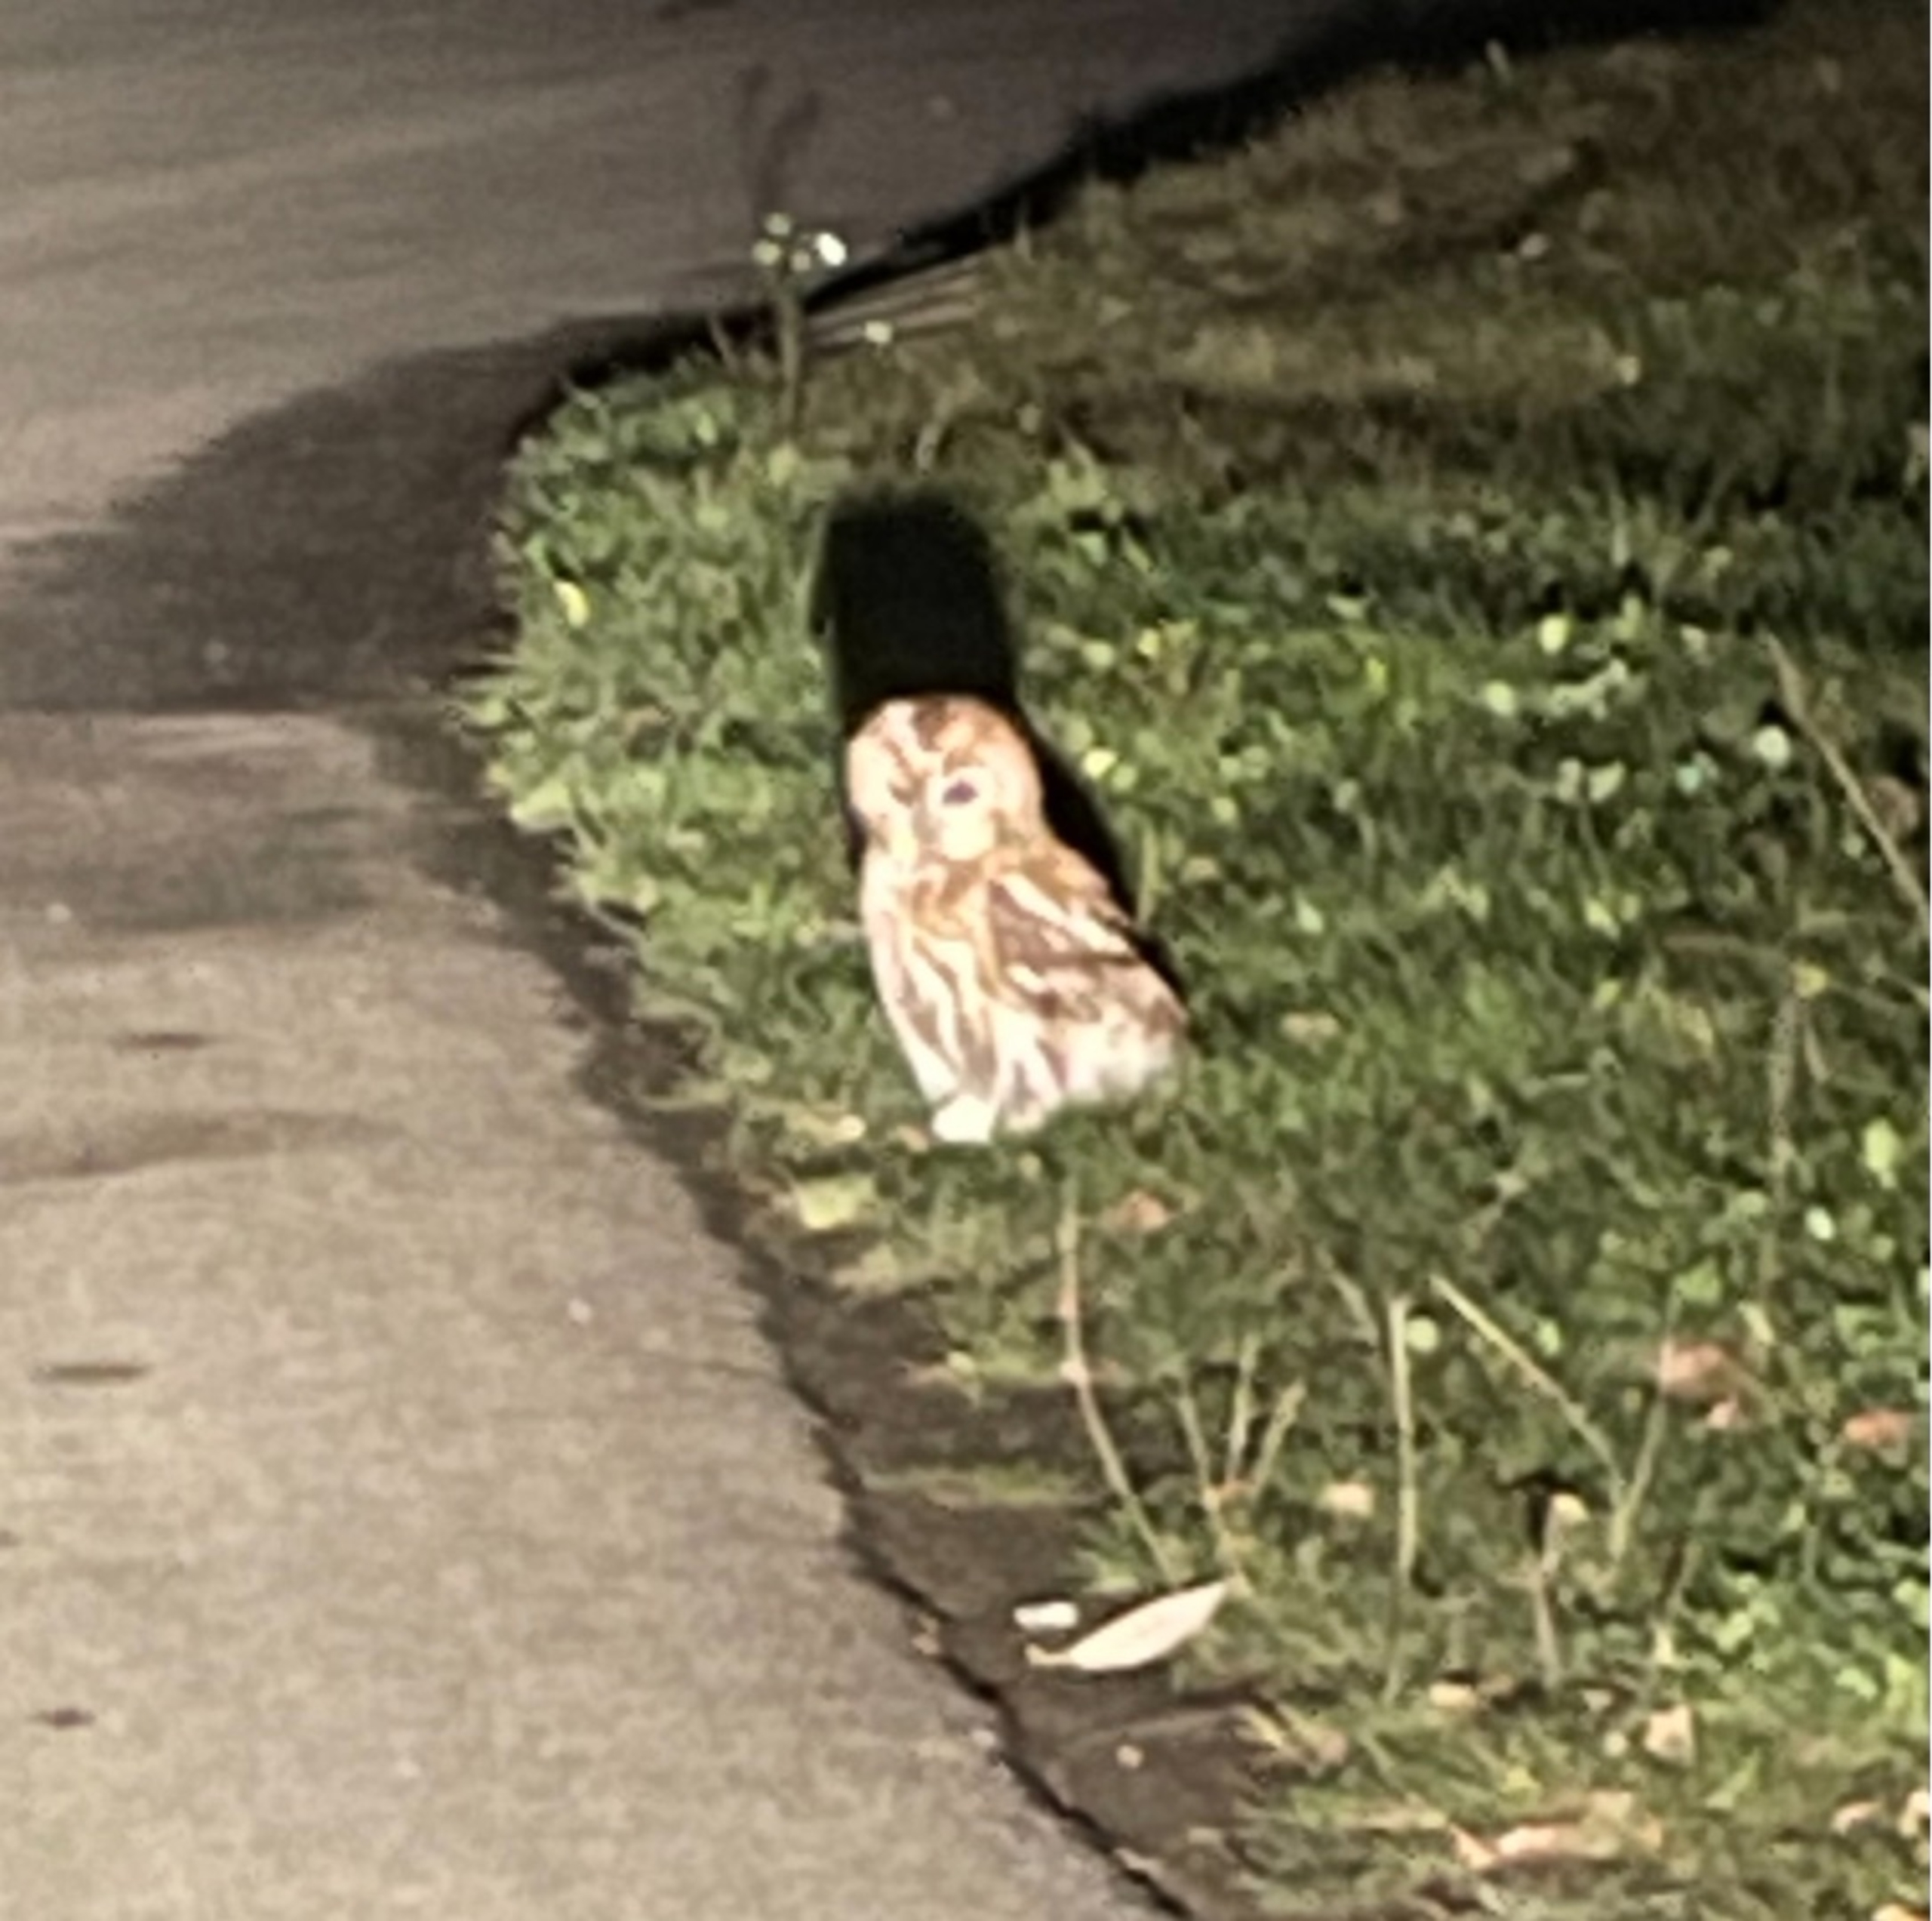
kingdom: Animalia
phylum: Chordata
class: Aves
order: Strigiformes
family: Strigidae
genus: Strix
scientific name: Strix aluco
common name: Natugle
